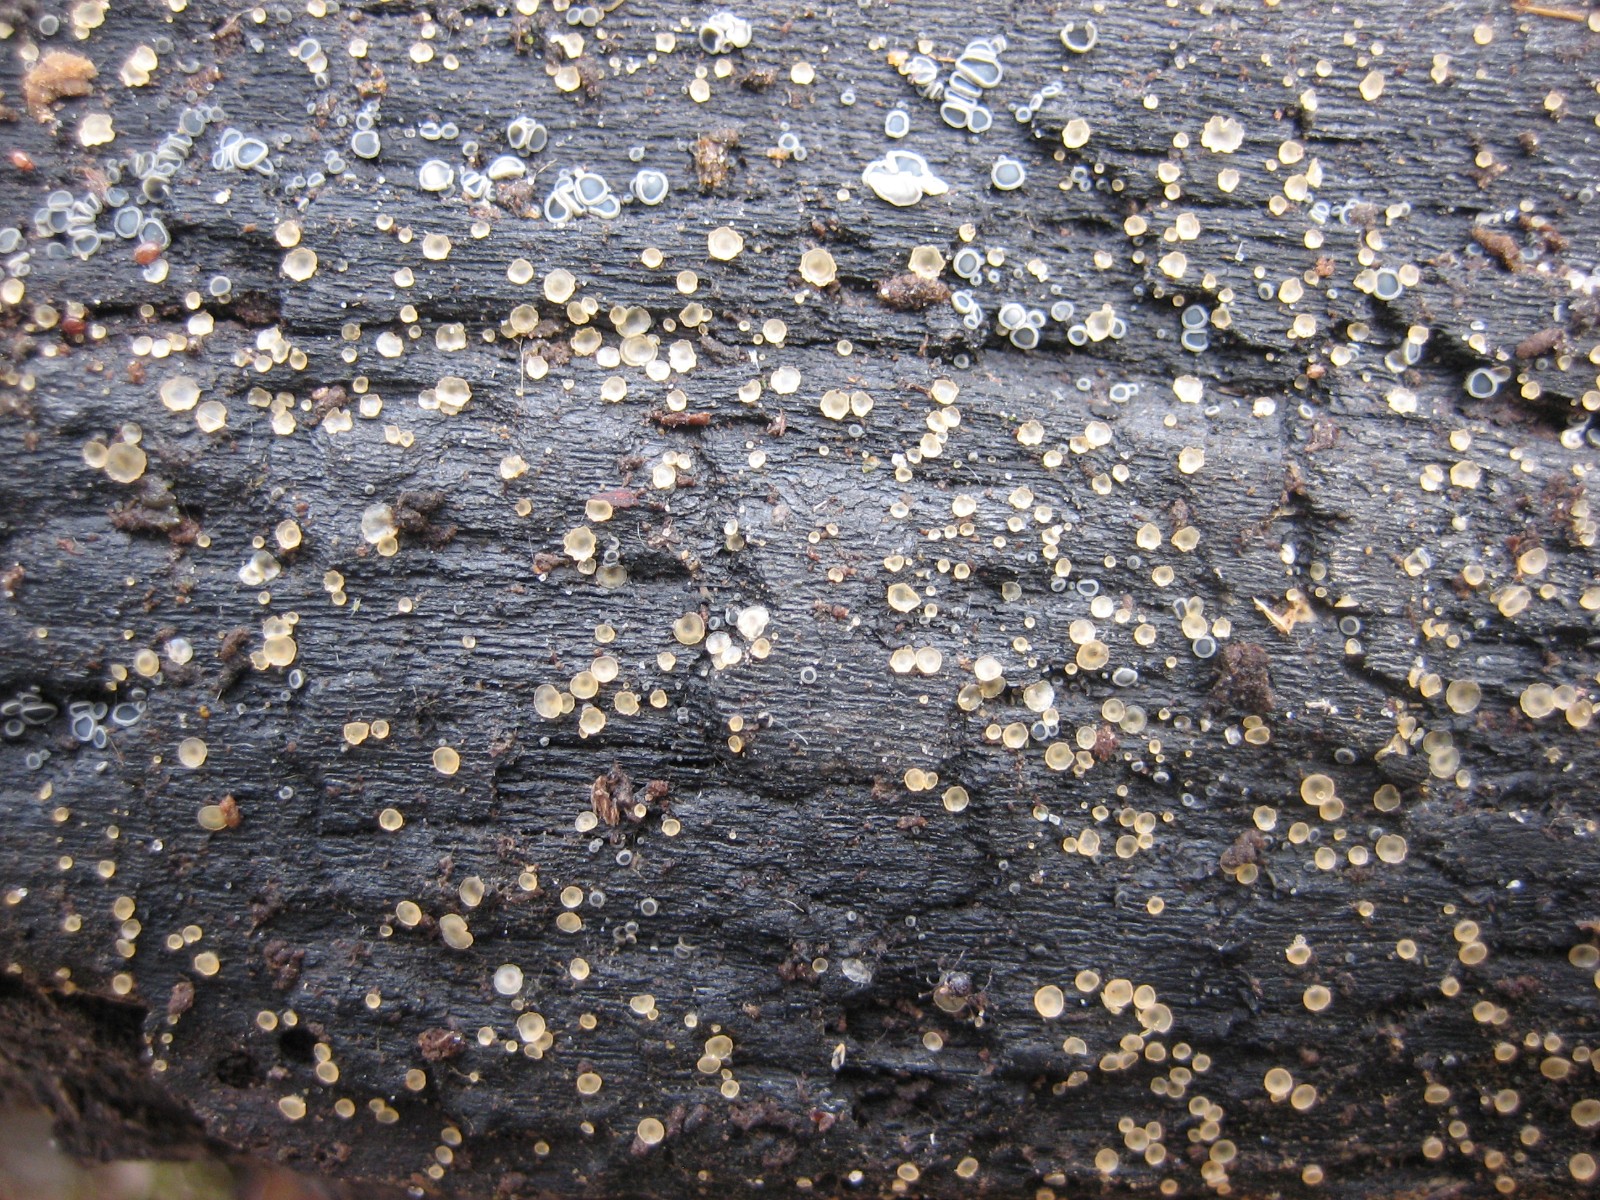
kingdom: Fungi
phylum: Ascomycota
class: Orbiliomycetes
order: Orbiliales
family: Orbiliaceae
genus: Hyalorbilia
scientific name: Hyalorbilia
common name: voksskive
